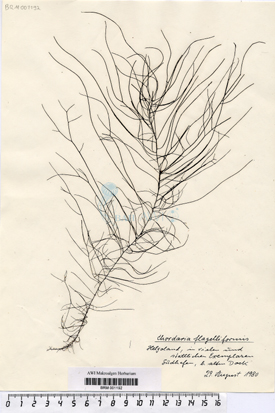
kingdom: Chromista
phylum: Ochrophyta
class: Phaeophyceae
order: Ectocarpales
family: Chordariaceae
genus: Chordaria
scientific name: Chordaria flagelliformis
